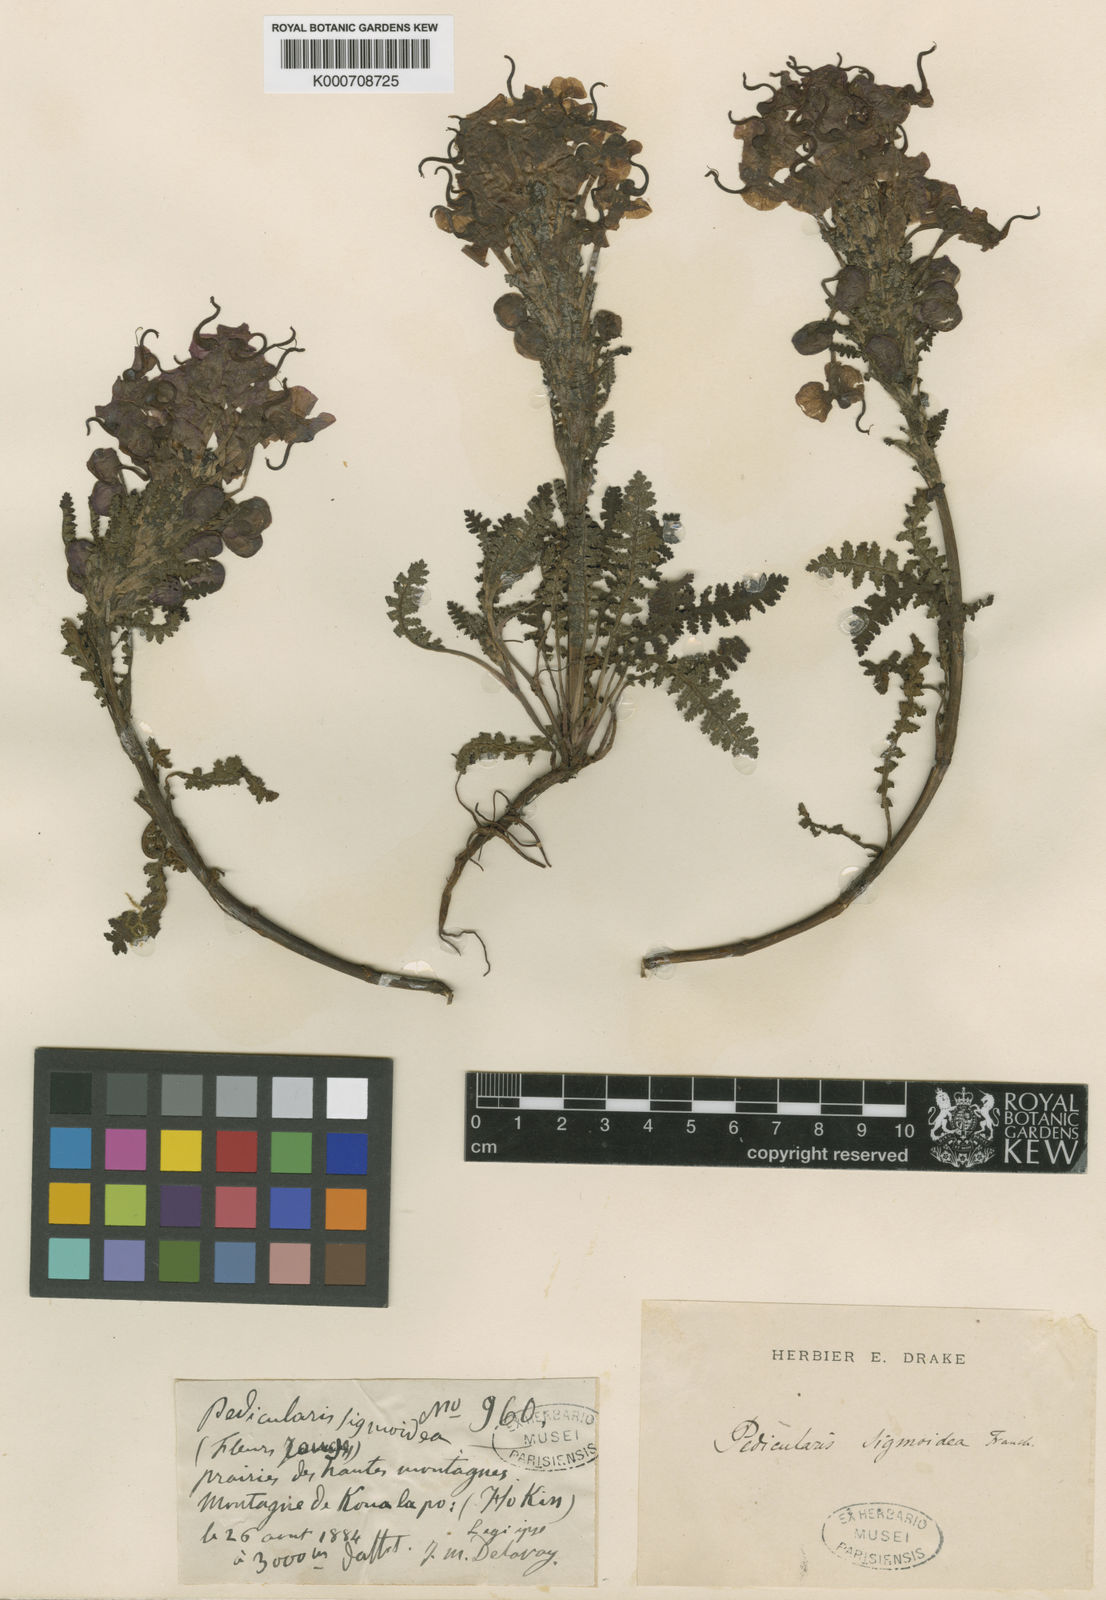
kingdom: Plantae
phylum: Tracheophyta
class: Magnoliopsida
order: Lamiales
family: Orobanchaceae
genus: Pedicularis
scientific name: Pedicularis sigmoidea
